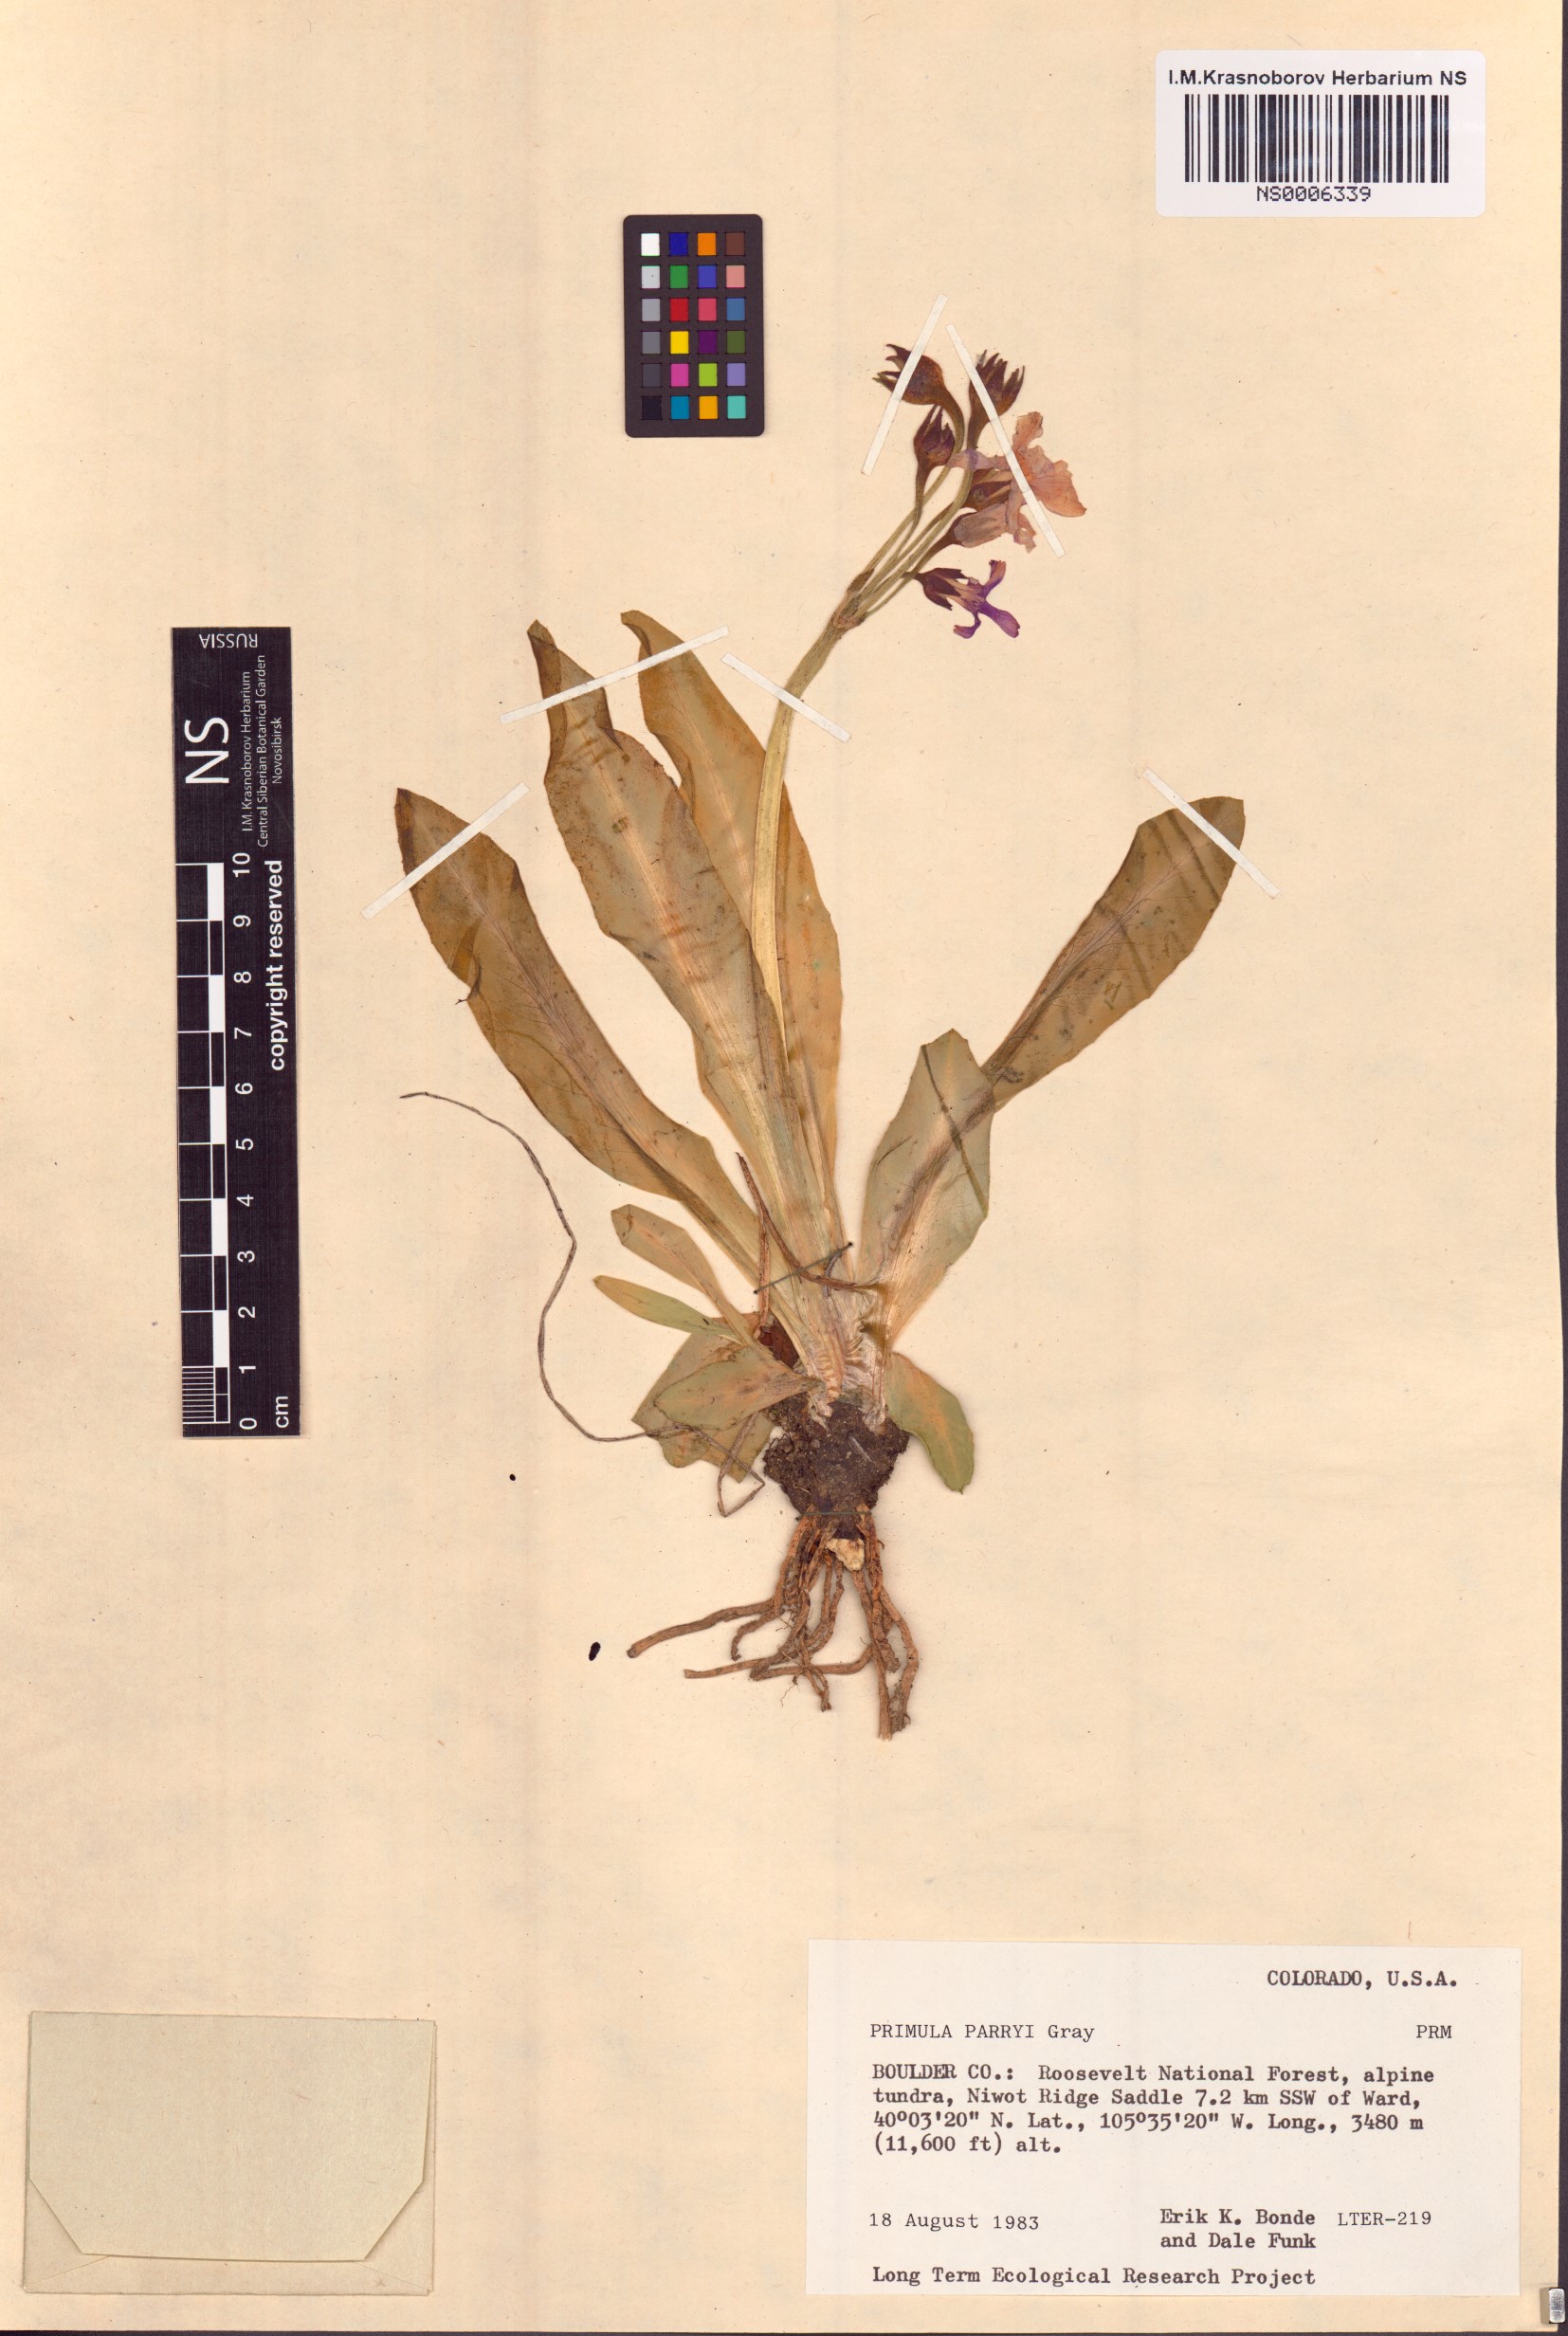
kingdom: Plantae
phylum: Tracheophyta
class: Magnoliopsida
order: Ericales
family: Primulaceae
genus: Primula
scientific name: Primula parryi
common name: Parry's primrose
